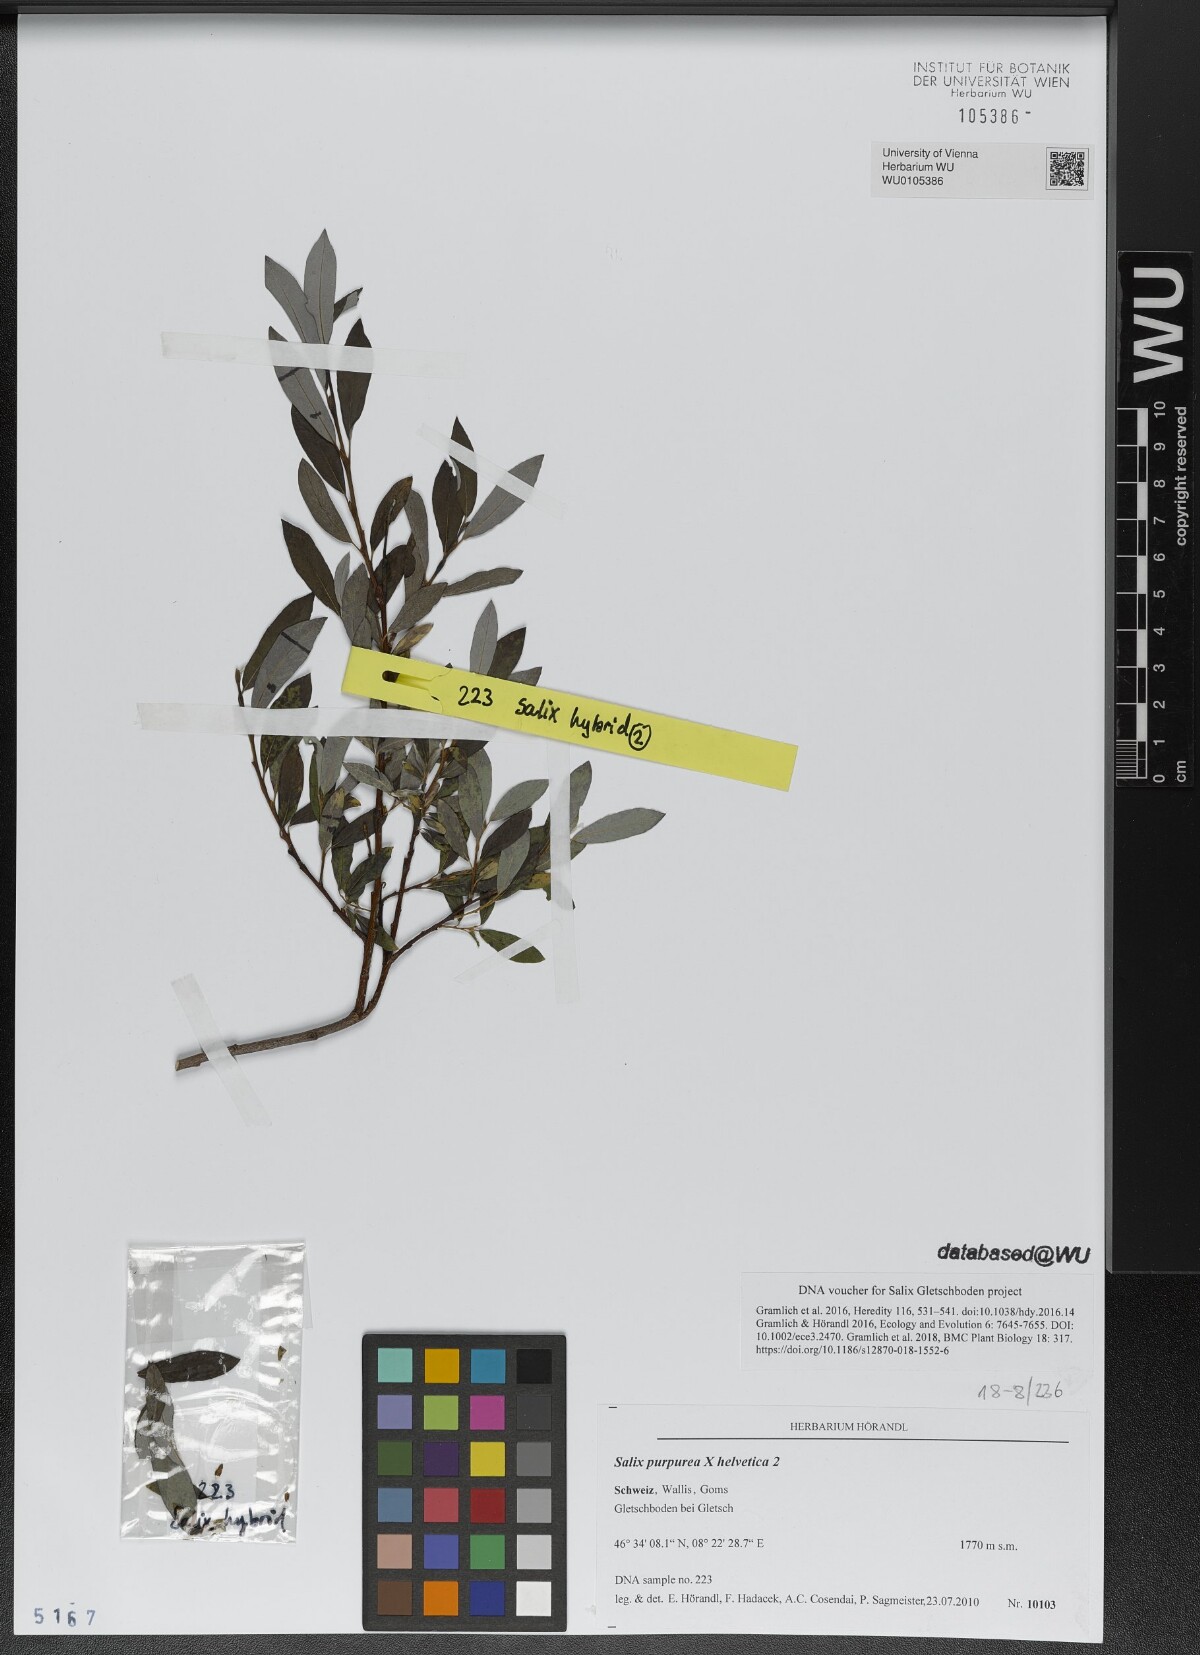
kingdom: Plantae
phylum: Tracheophyta
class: Magnoliopsida
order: Malpighiales
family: Salicaceae
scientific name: Salicaceae
